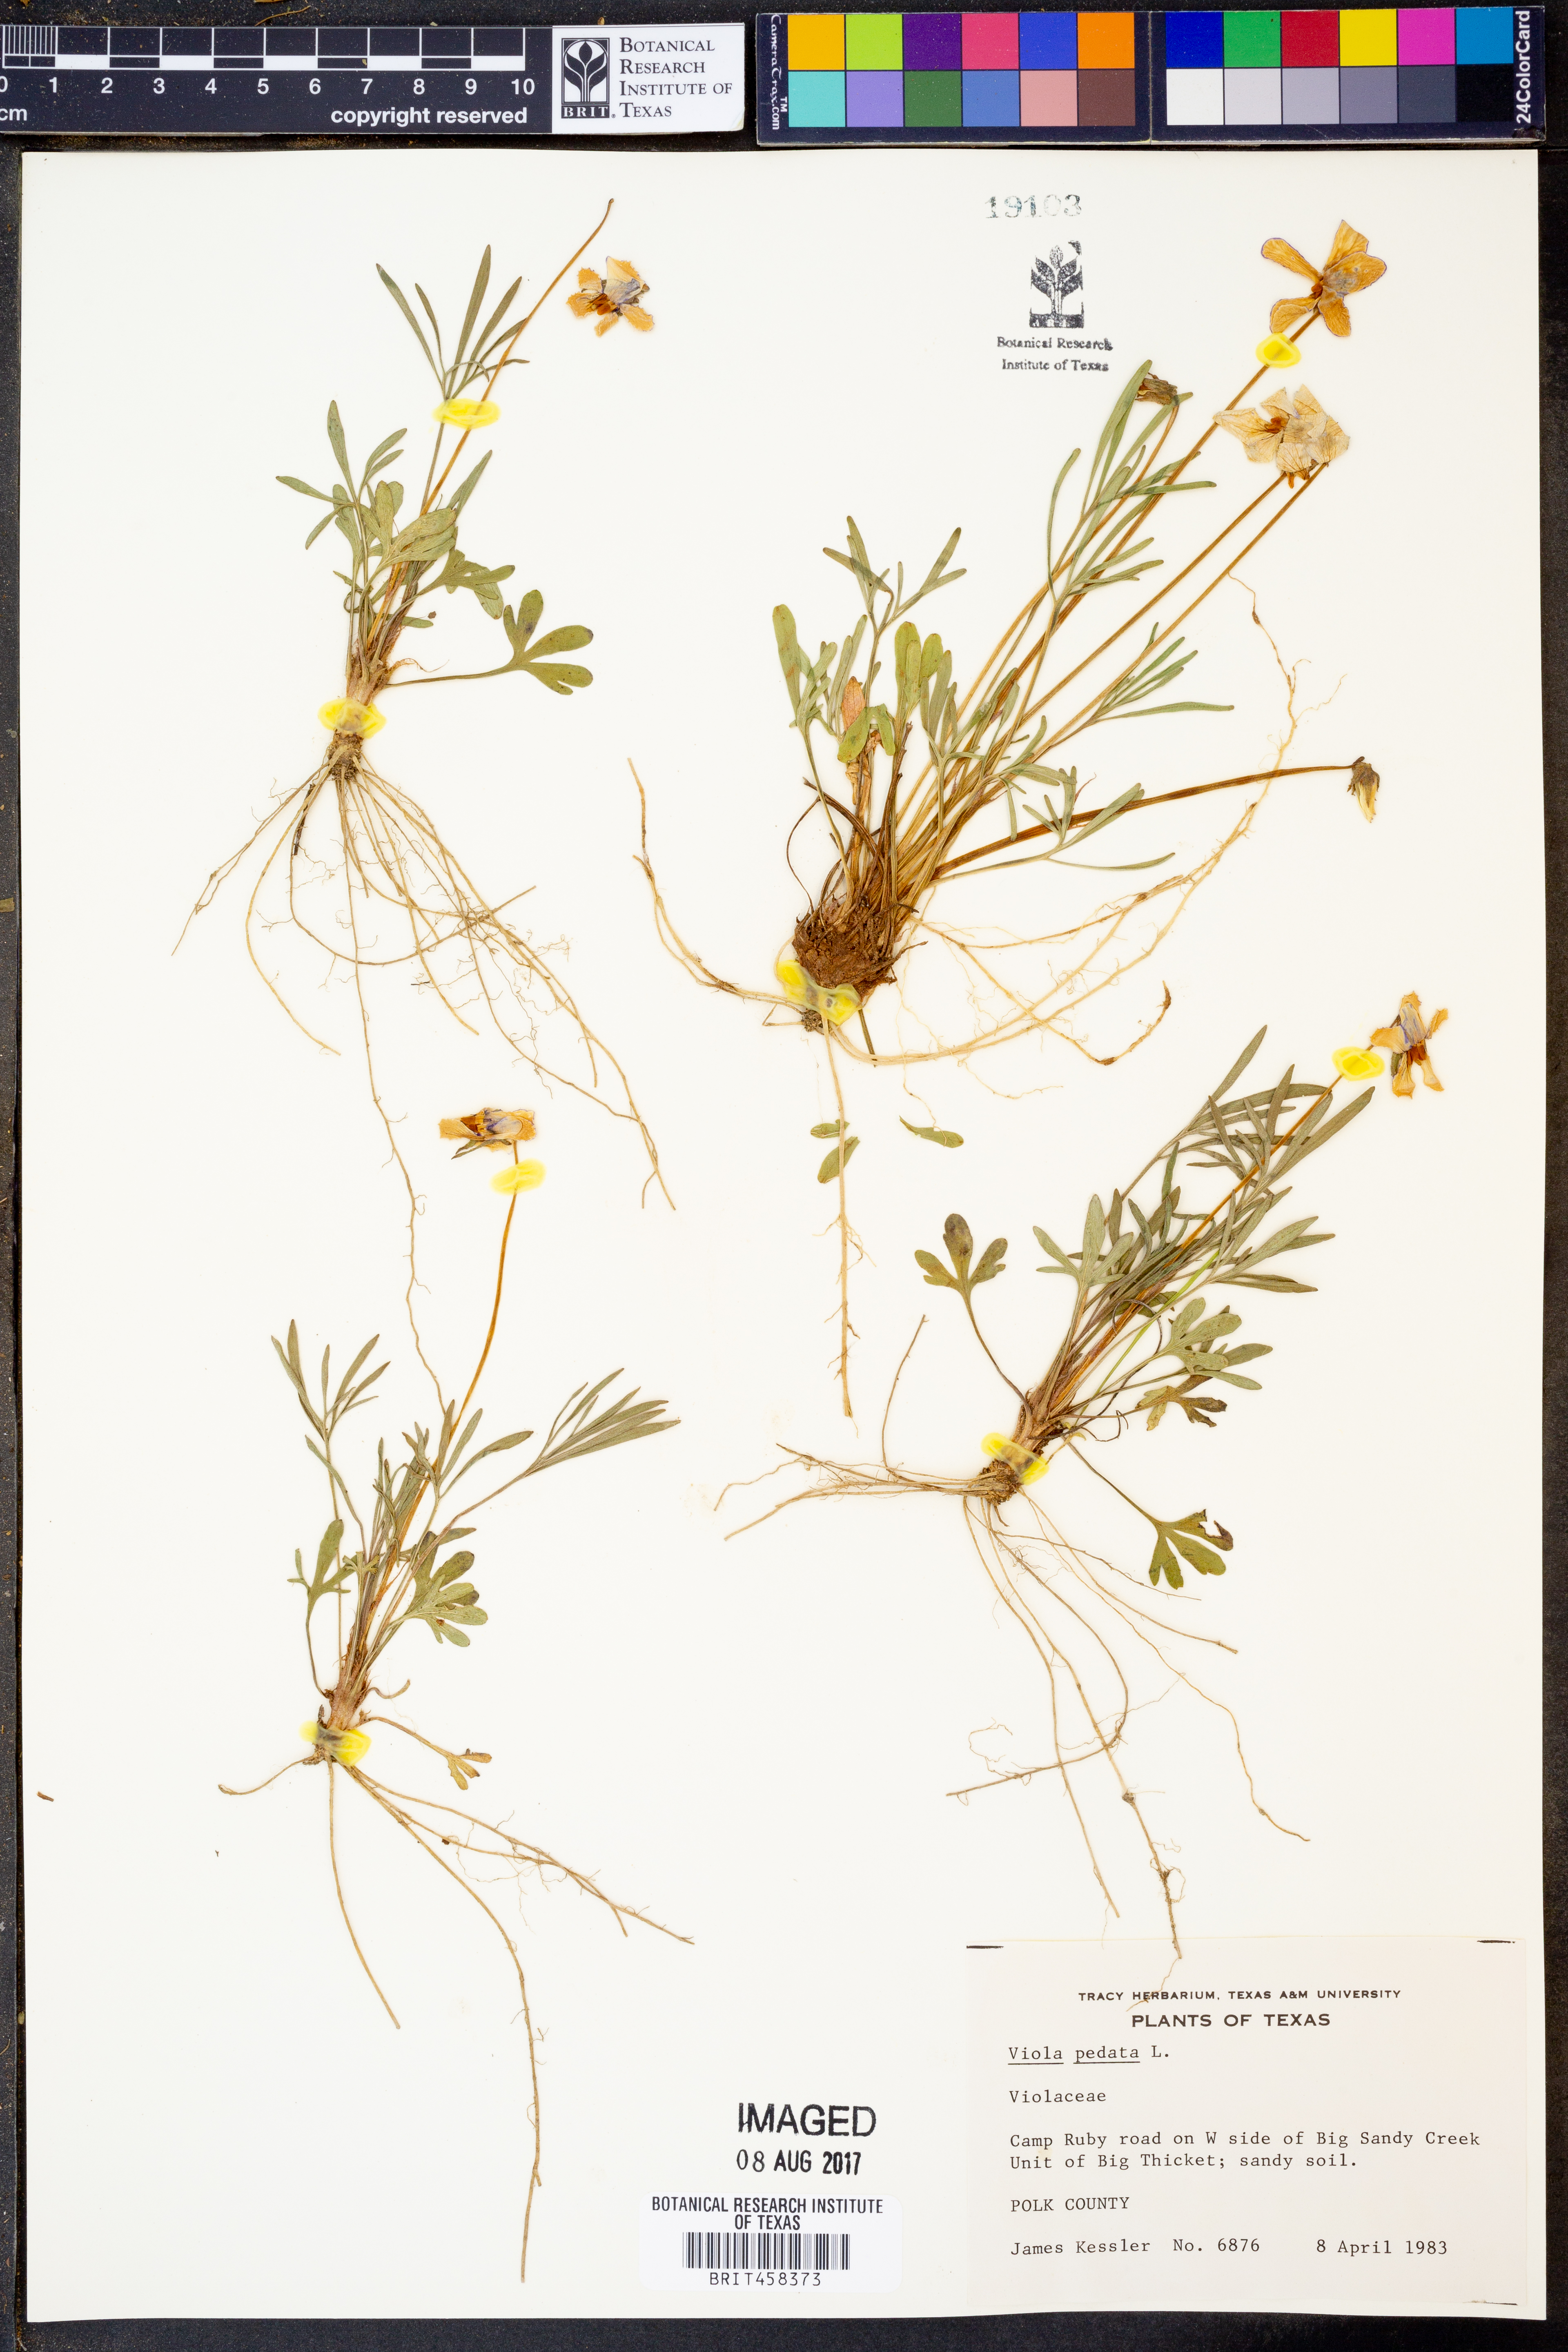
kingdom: Plantae
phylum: Tracheophyta
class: Magnoliopsida
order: Malpighiales
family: Violaceae
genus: Viola
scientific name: Viola pedata
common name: Pansy violet
